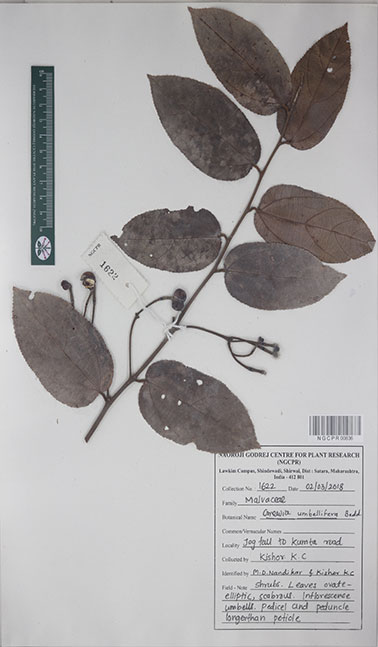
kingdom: Plantae
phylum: Tracheophyta
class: Magnoliopsida
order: Malvales
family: Malvaceae
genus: Grewia
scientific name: Grewia umbellifera
